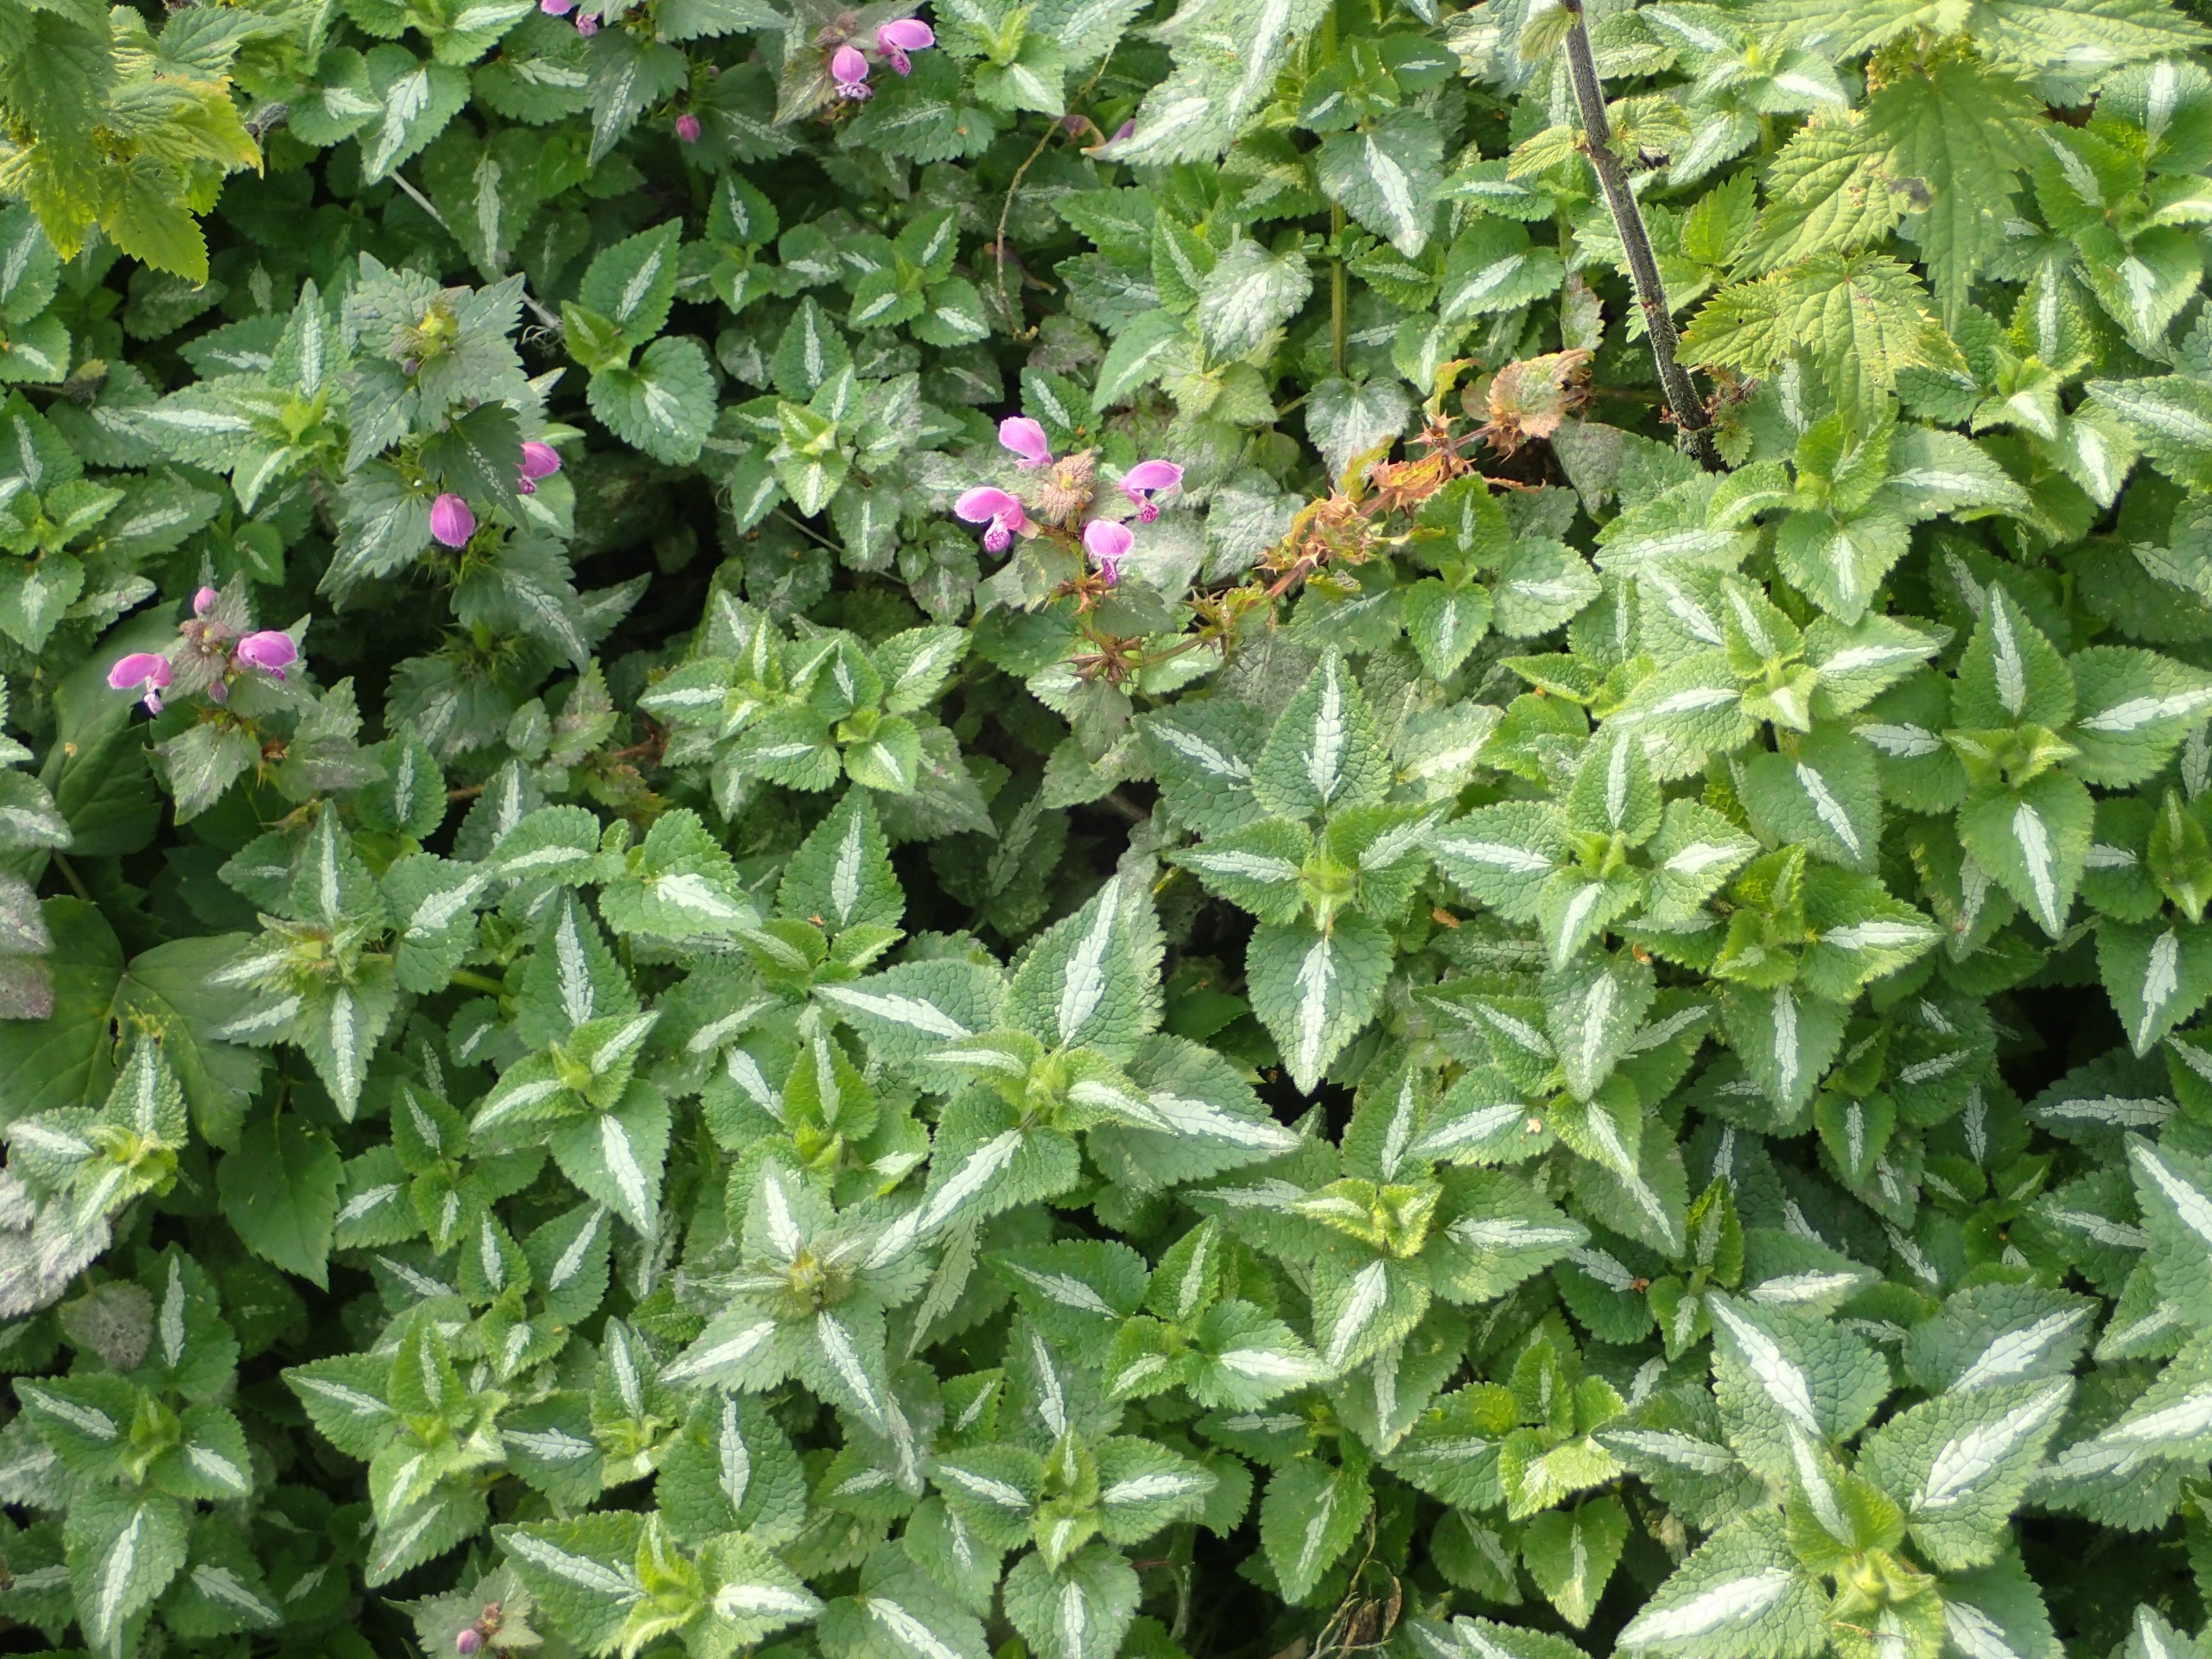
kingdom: Plantae
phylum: Tracheophyta
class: Magnoliopsida
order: Lamiales
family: Lamiaceae
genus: Lamium
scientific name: Lamium maculatum
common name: Plettet tvetand
